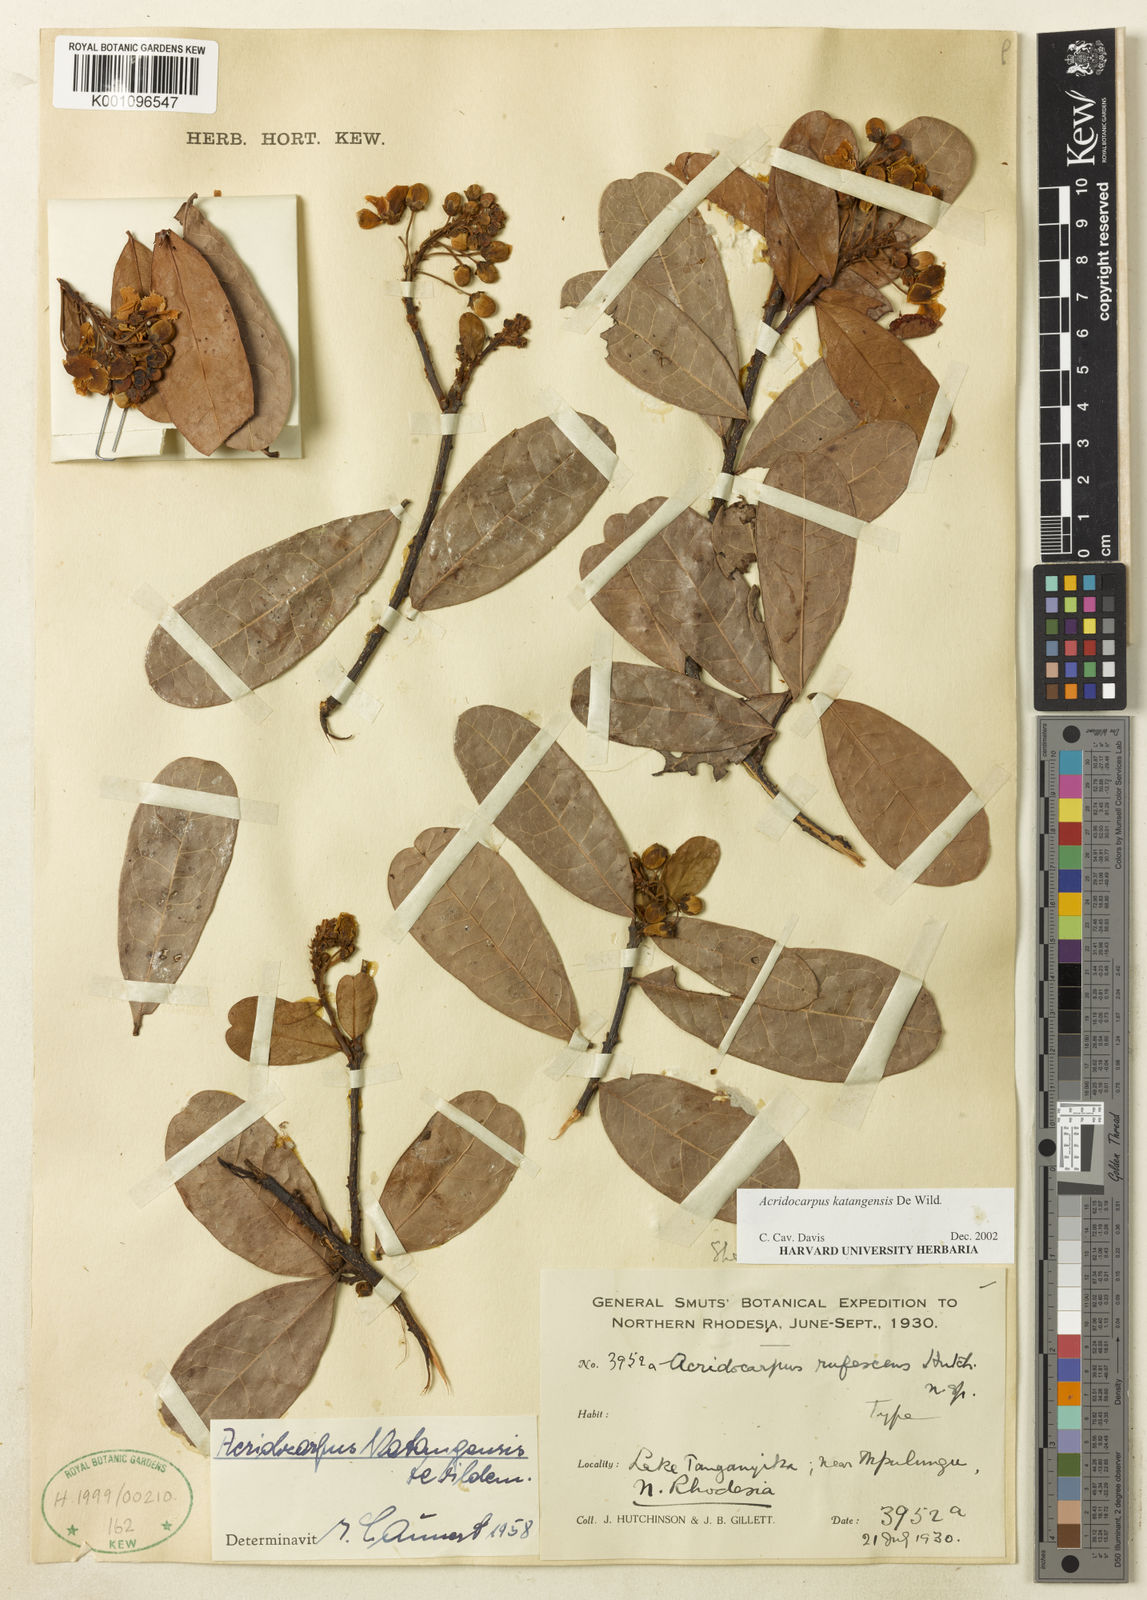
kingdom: Plantae
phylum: Tracheophyta
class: Magnoliopsida
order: Malpighiales
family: Malpighiaceae
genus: Acridocarpus
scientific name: Acridocarpus katangensis
